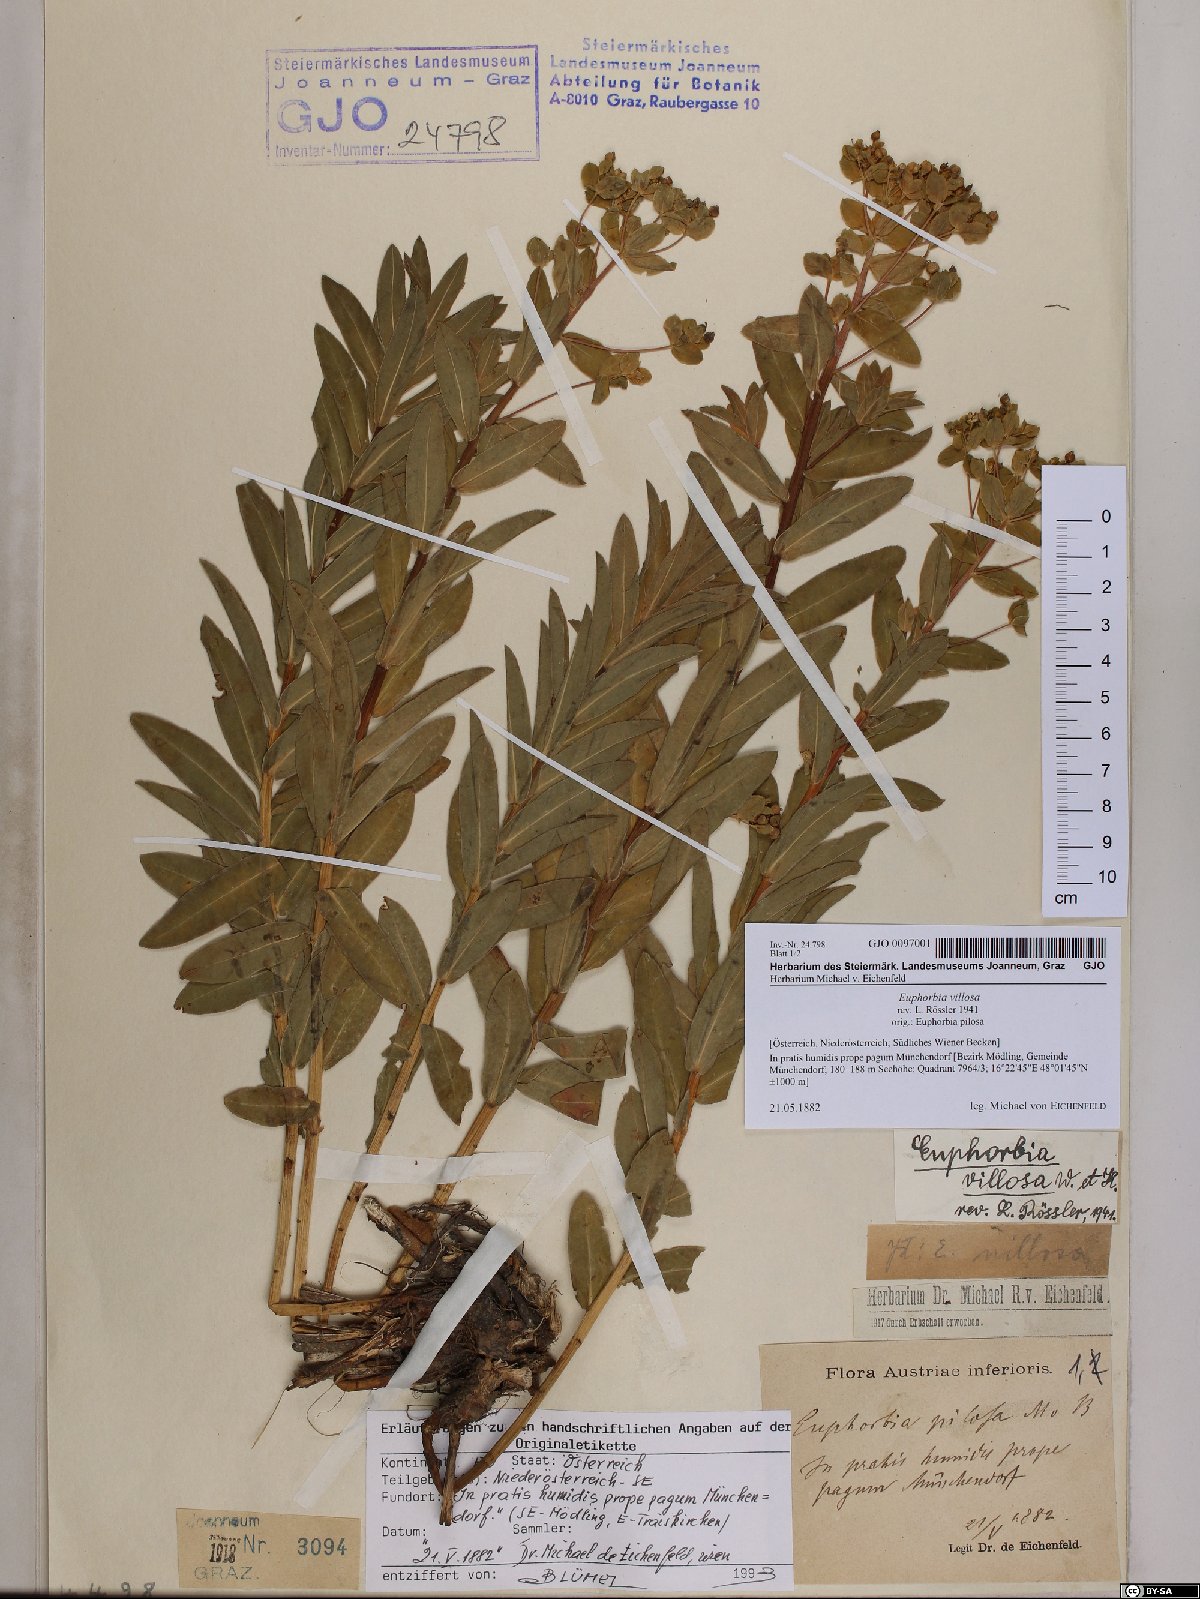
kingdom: Plantae
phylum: Tracheophyta
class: Magnoliopsida
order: Malpighiales
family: Euphorbiaceae
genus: Euphorbia
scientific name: Euphorbia illirica
